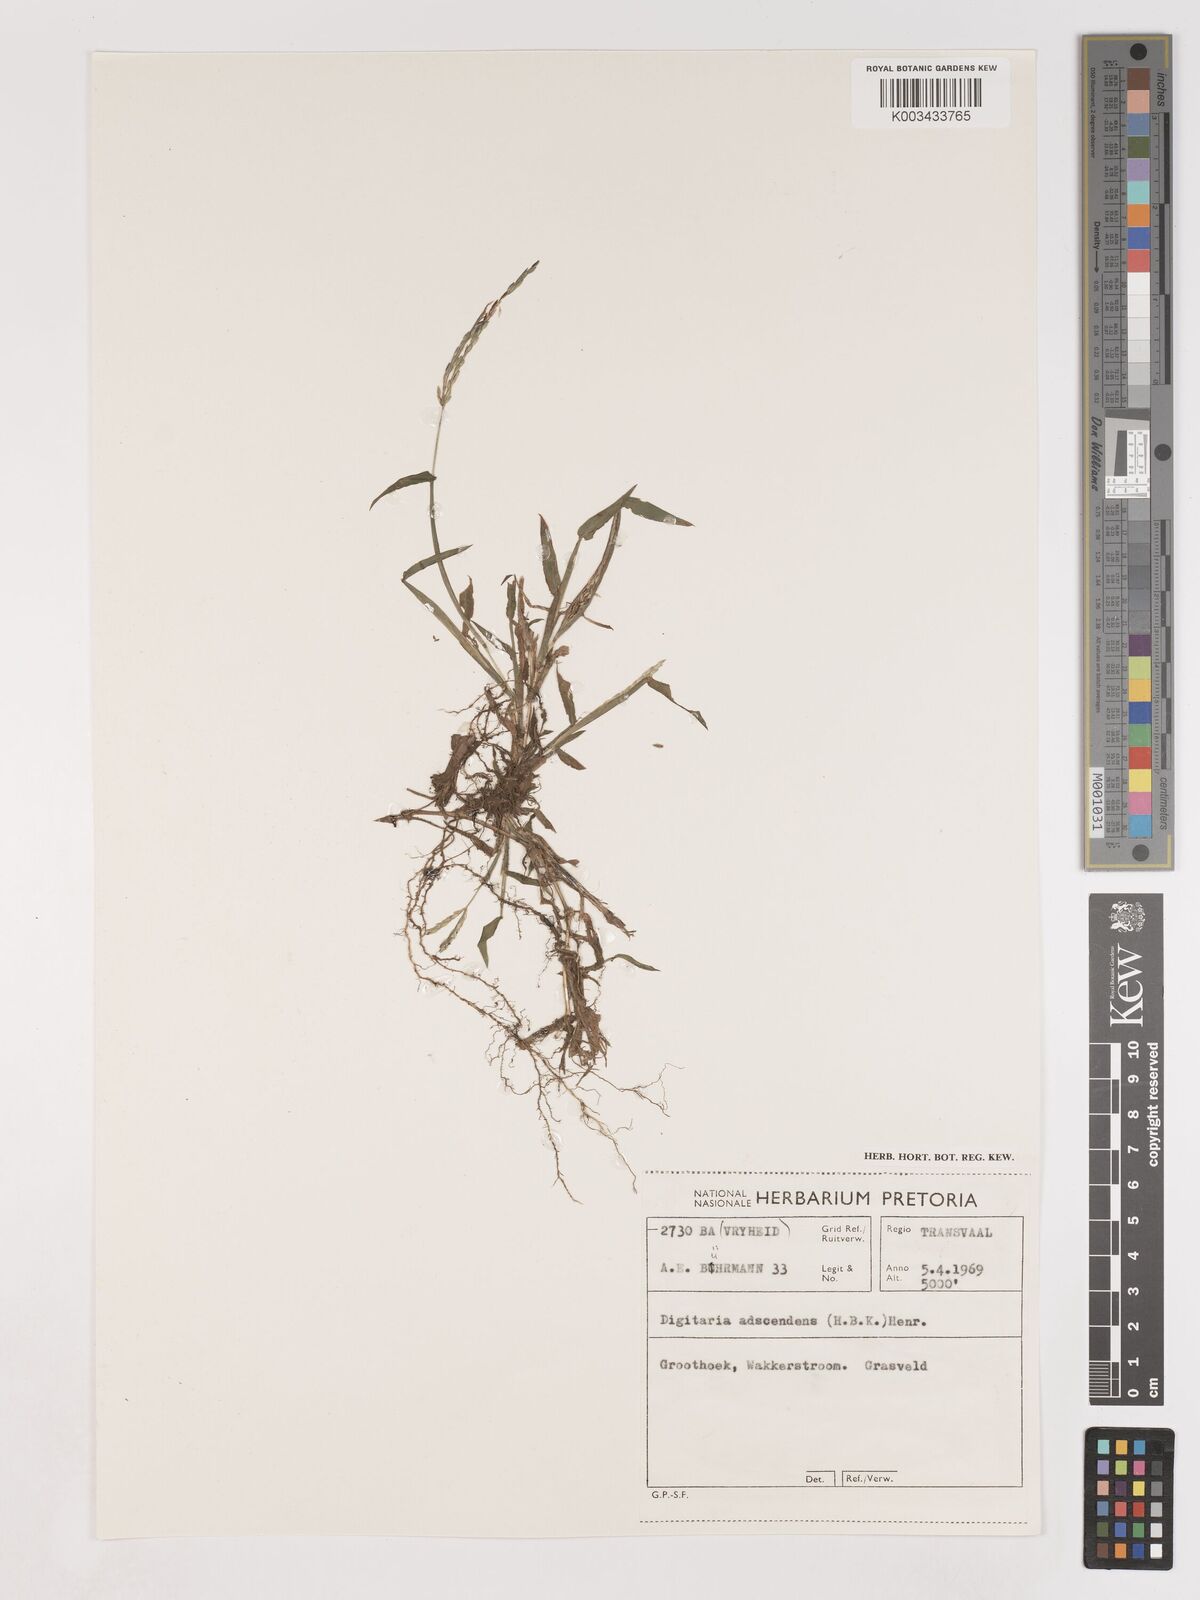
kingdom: Plantae
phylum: Tracheophyta
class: Liliopsida
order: Poales
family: Poaceae
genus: Digitaria
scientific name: Digitaria ciliaris
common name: Tropical finger-grass
